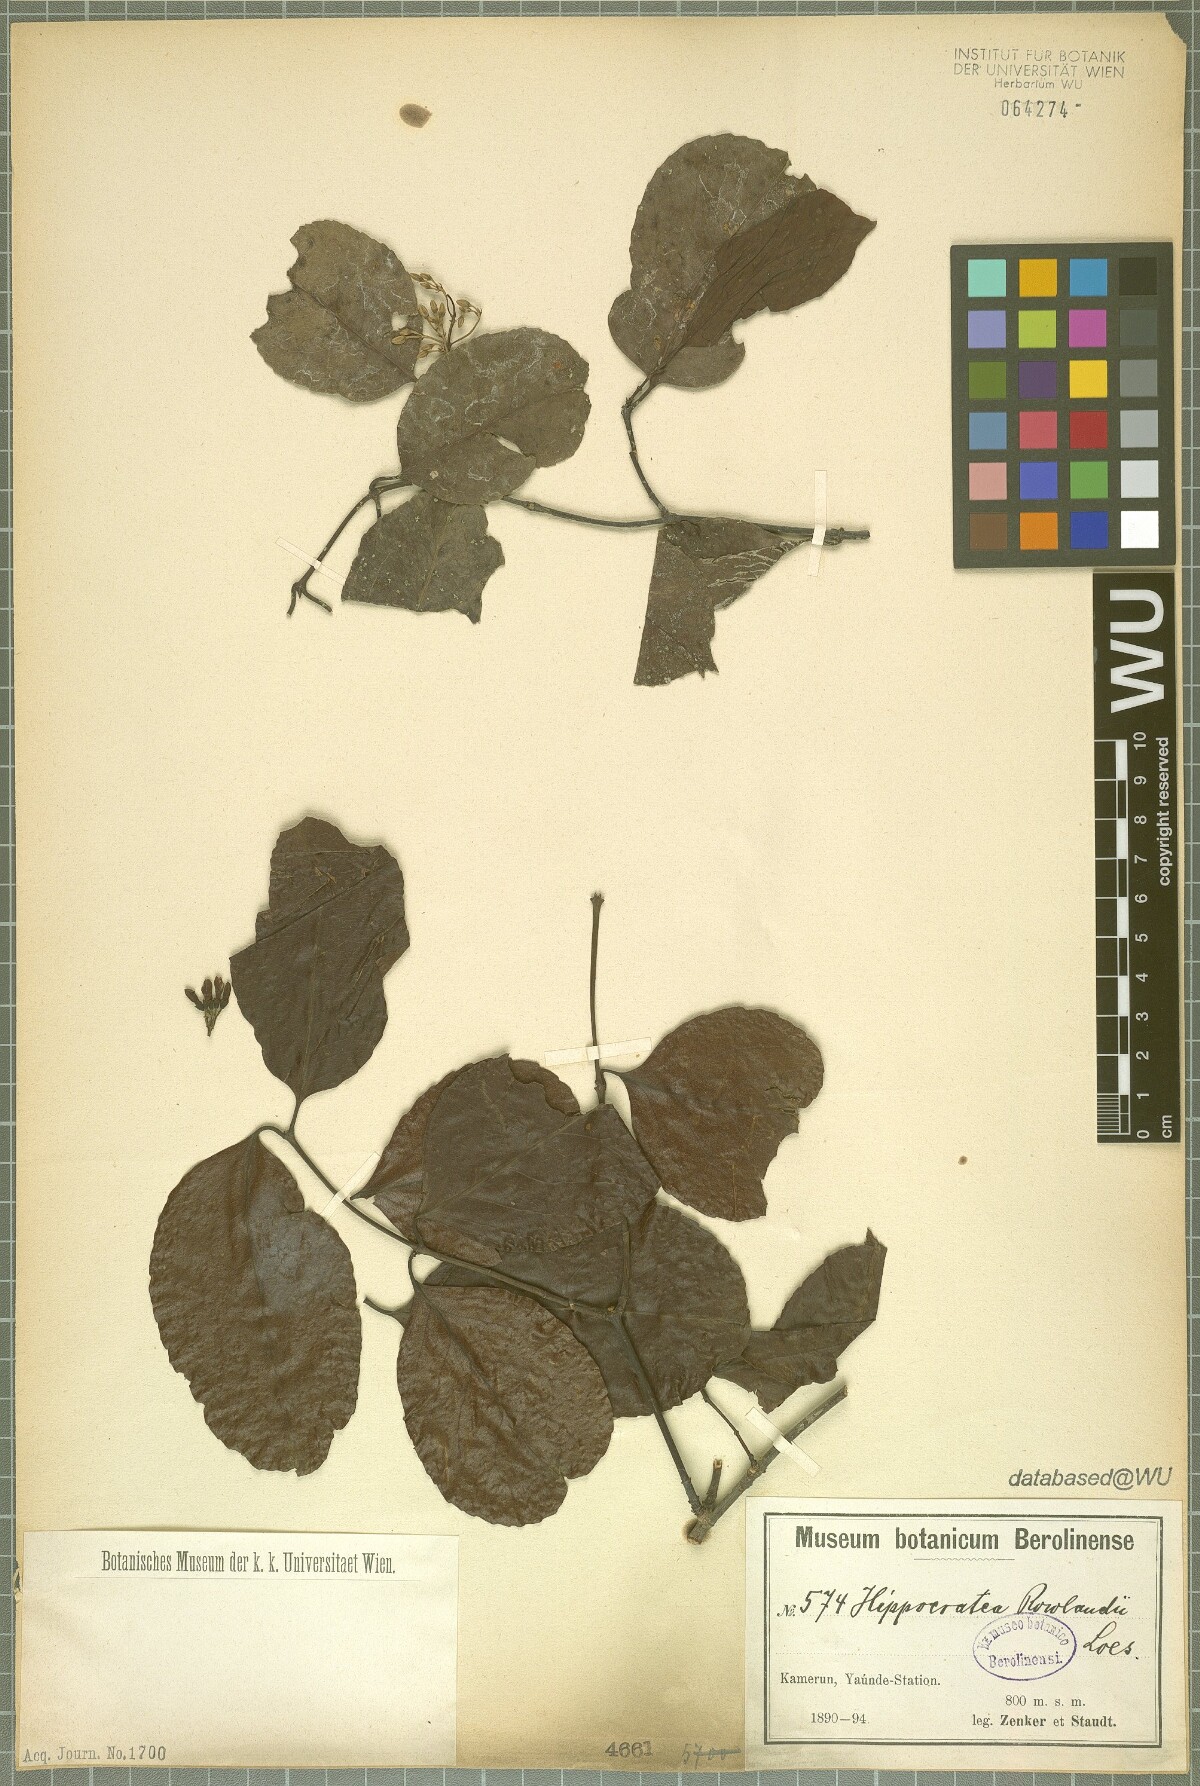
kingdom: Plantae
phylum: Tracheophyta
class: Magnoliopsida
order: Celastrales
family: Celastraceae
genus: Loeseneriella
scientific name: Loeseneriella rowlandii
